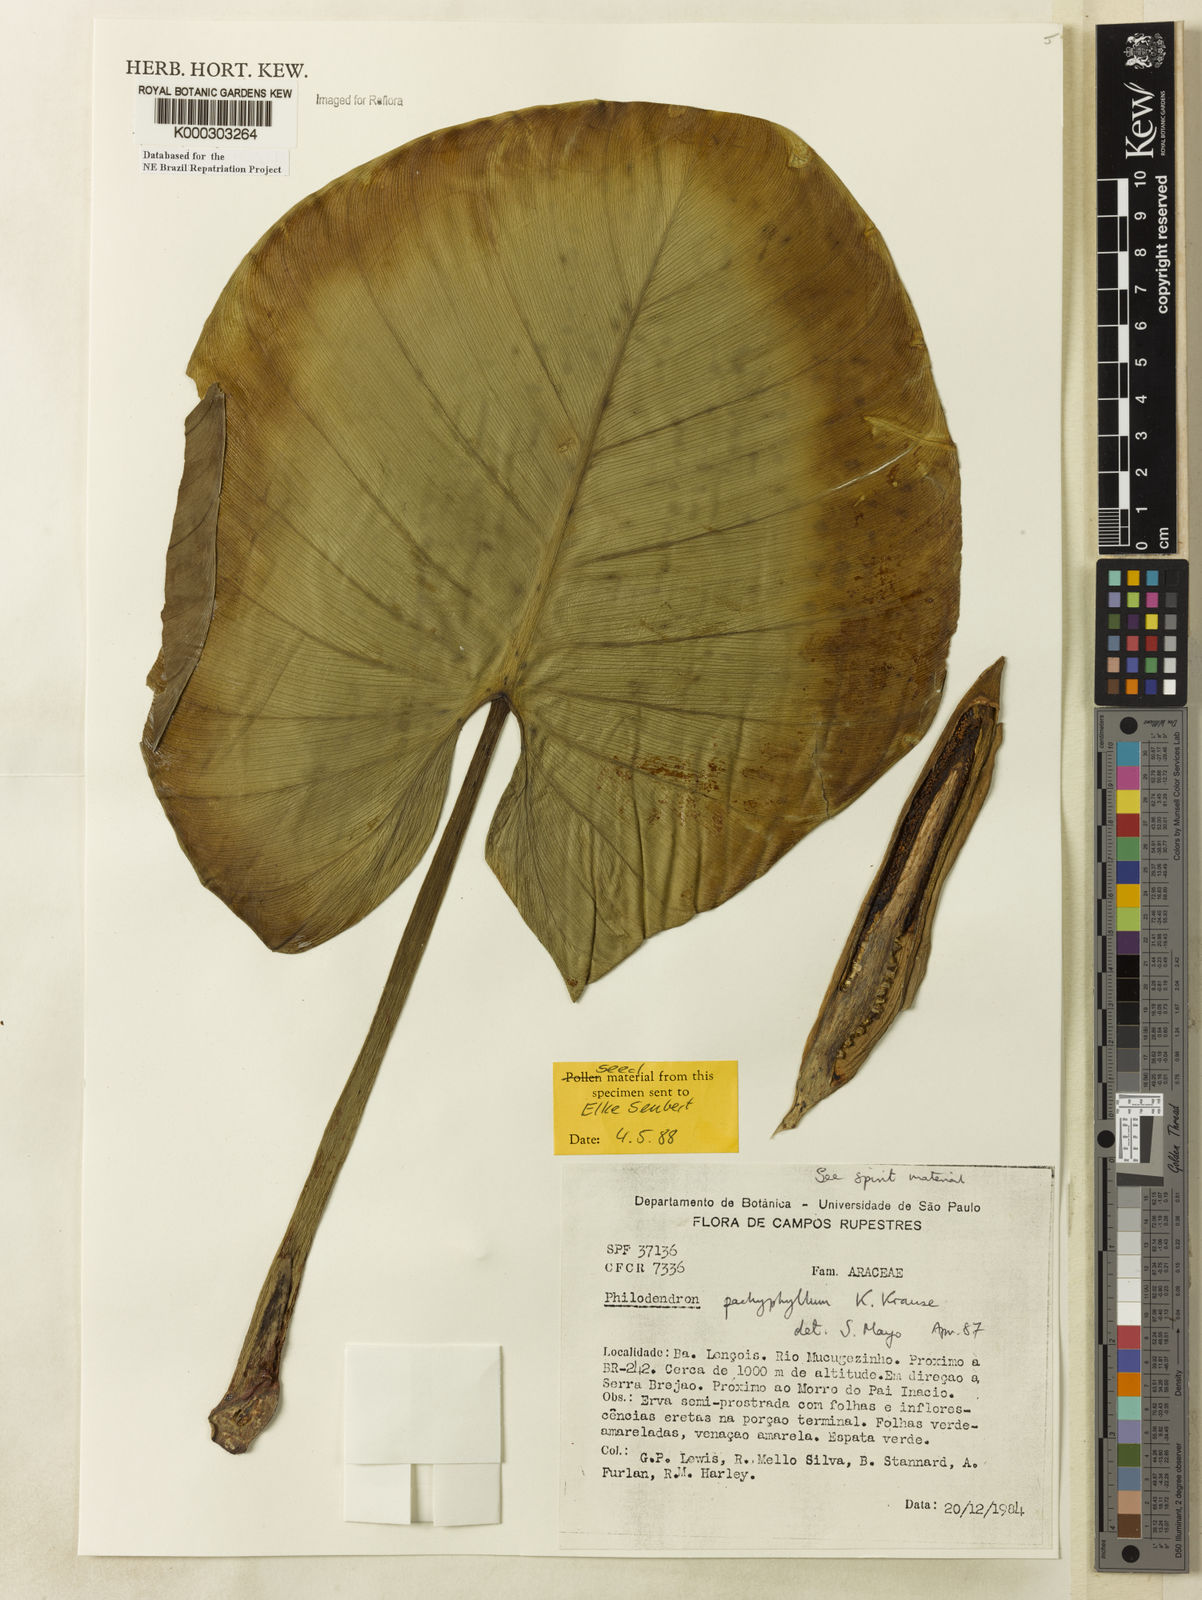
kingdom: Plantae
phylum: Tracheophyta
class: Liliopsida
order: Alismatales
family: Araceae
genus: Philodendron
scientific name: Philodendron pachyphyllum
